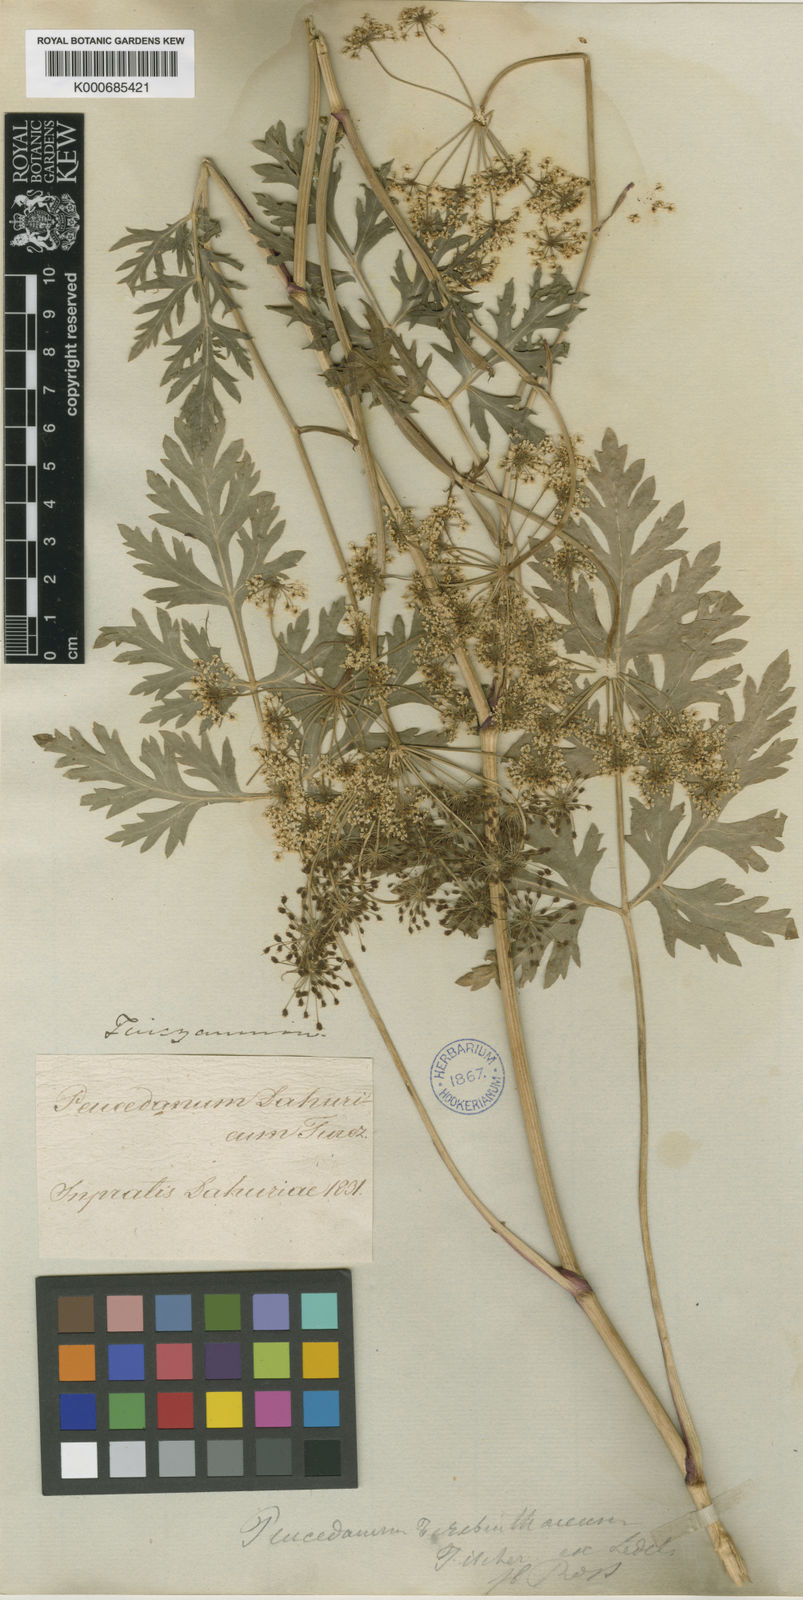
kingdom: Plantae
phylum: Tracheophyta
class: Magnoliopsida
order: Apiales
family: Apiaceae
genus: Peucedanum
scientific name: Peucedanum
